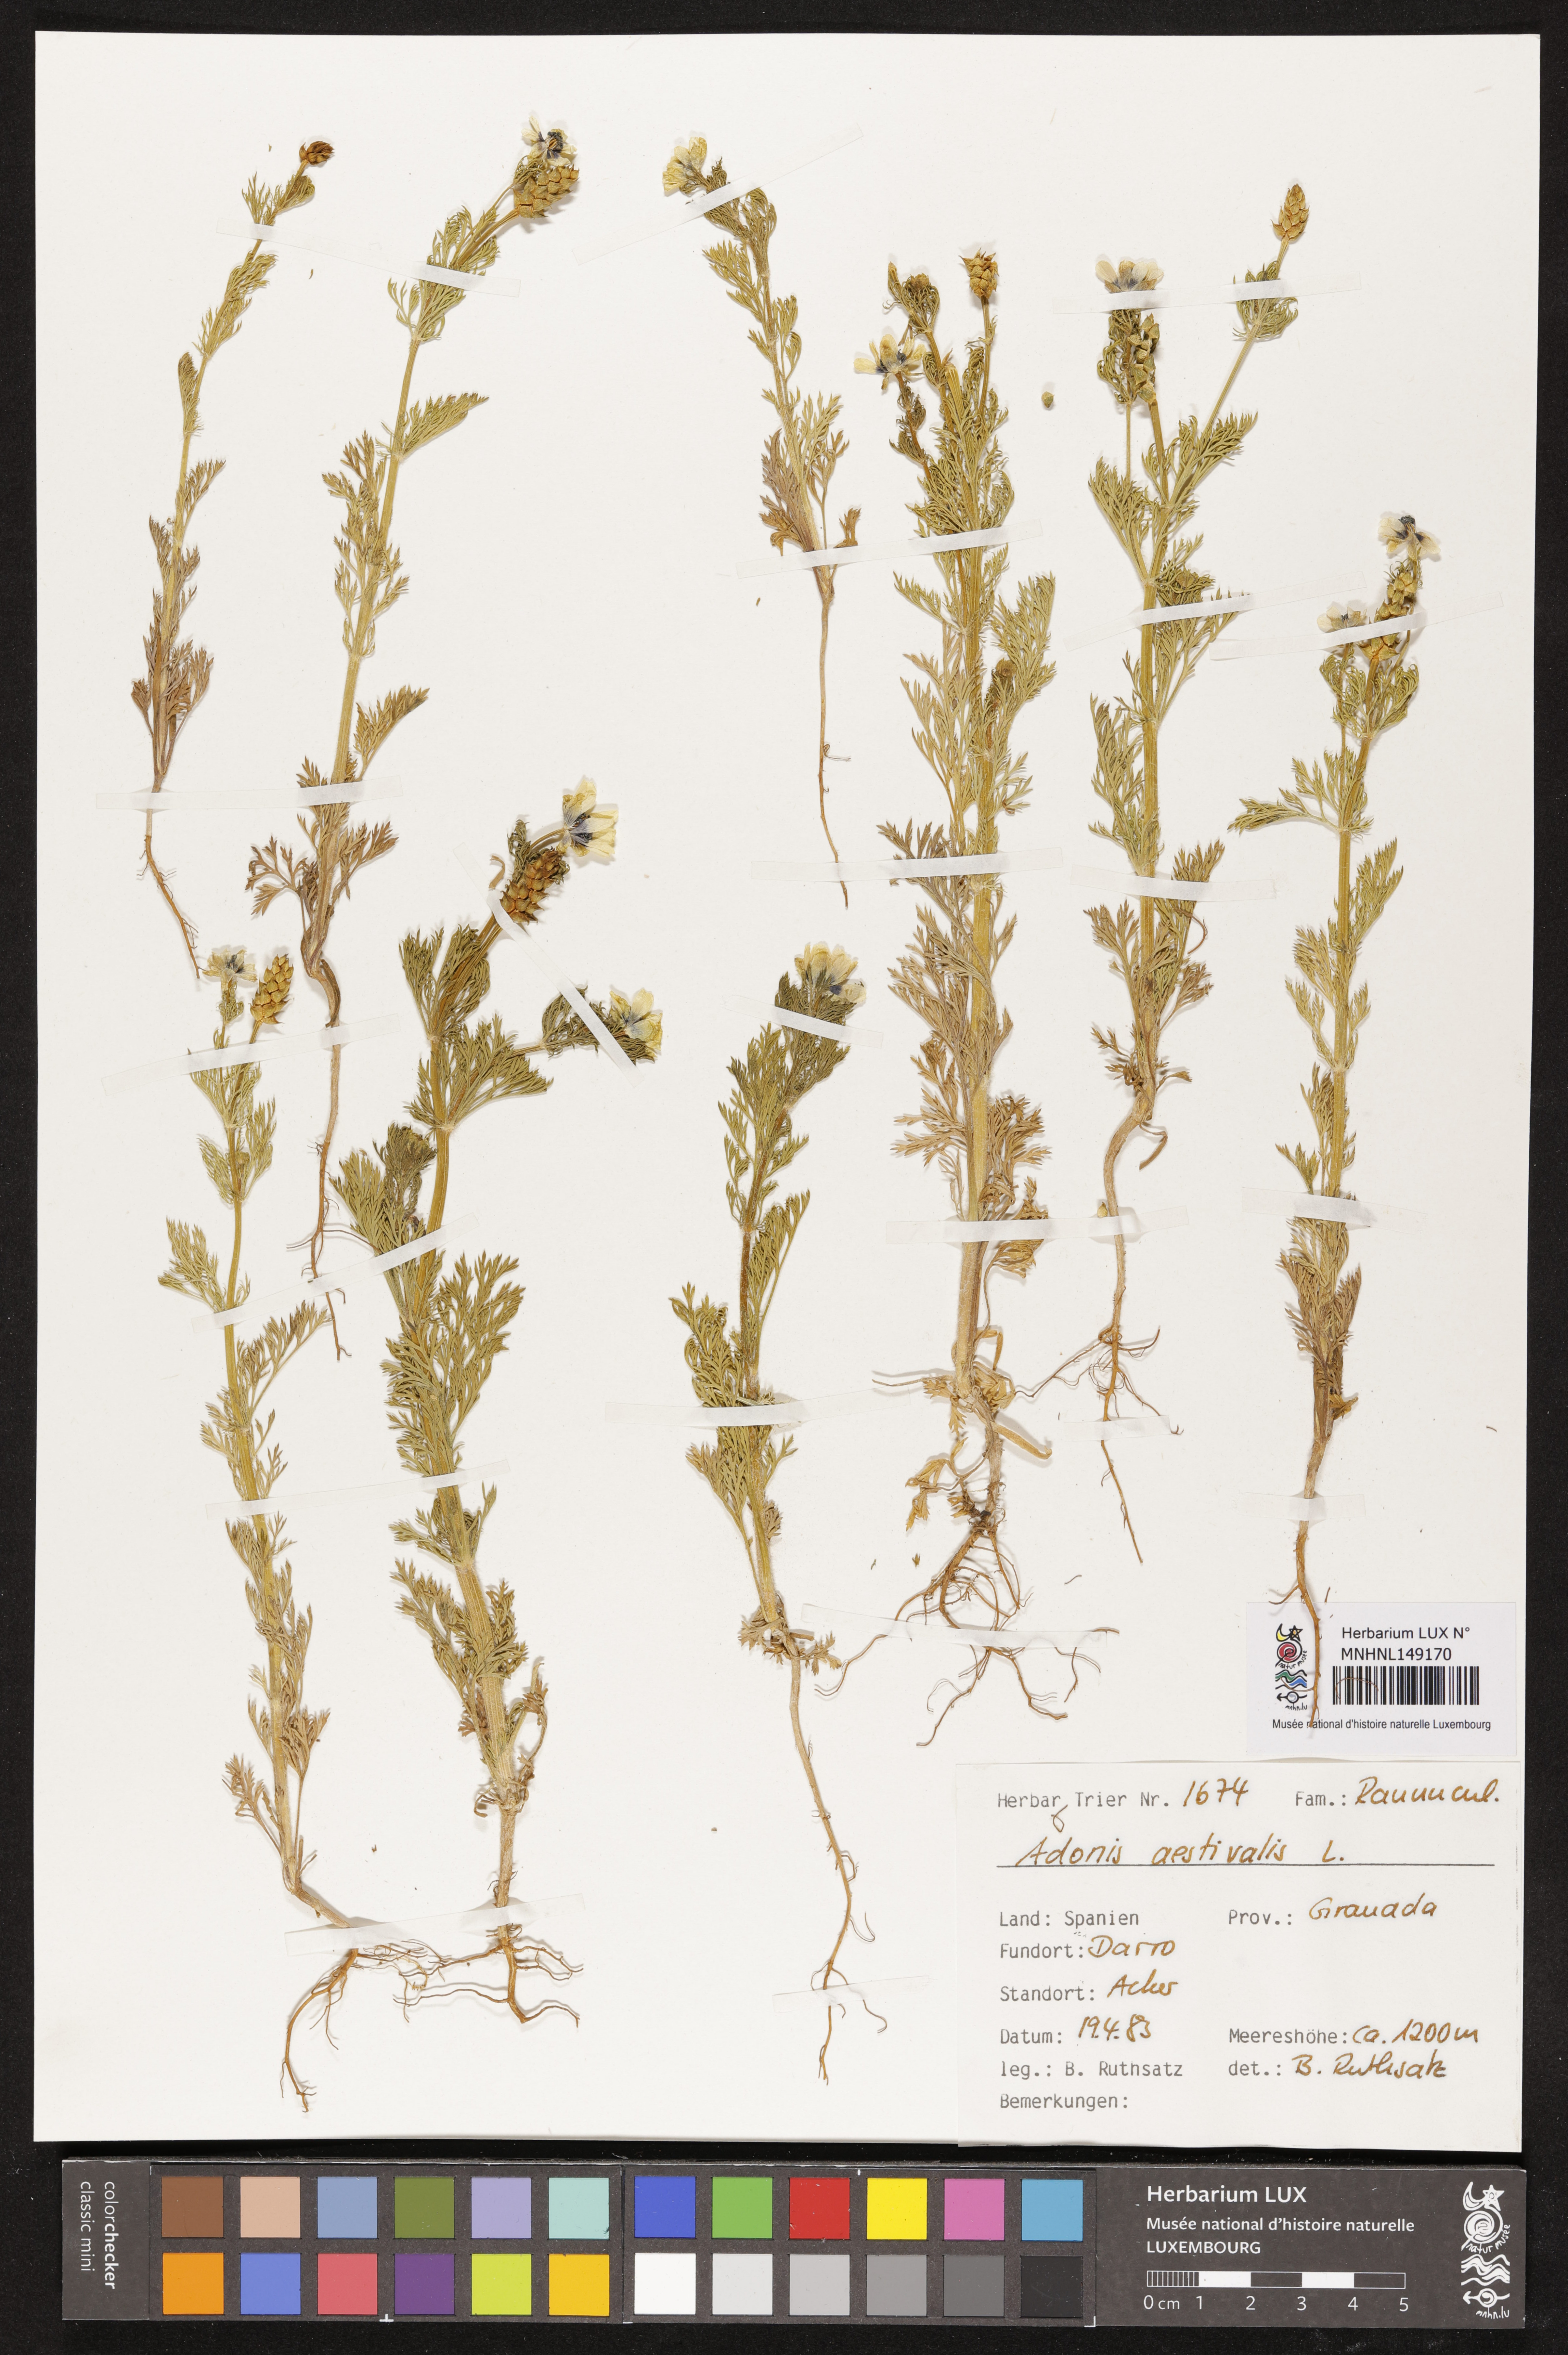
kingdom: Plantae
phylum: Tracheophyta
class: Magnoliopsida
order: Ranunculales
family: Ranunculaceae
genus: Adonis
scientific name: Adonis aestivalis
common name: Summer pheasant's-eye
